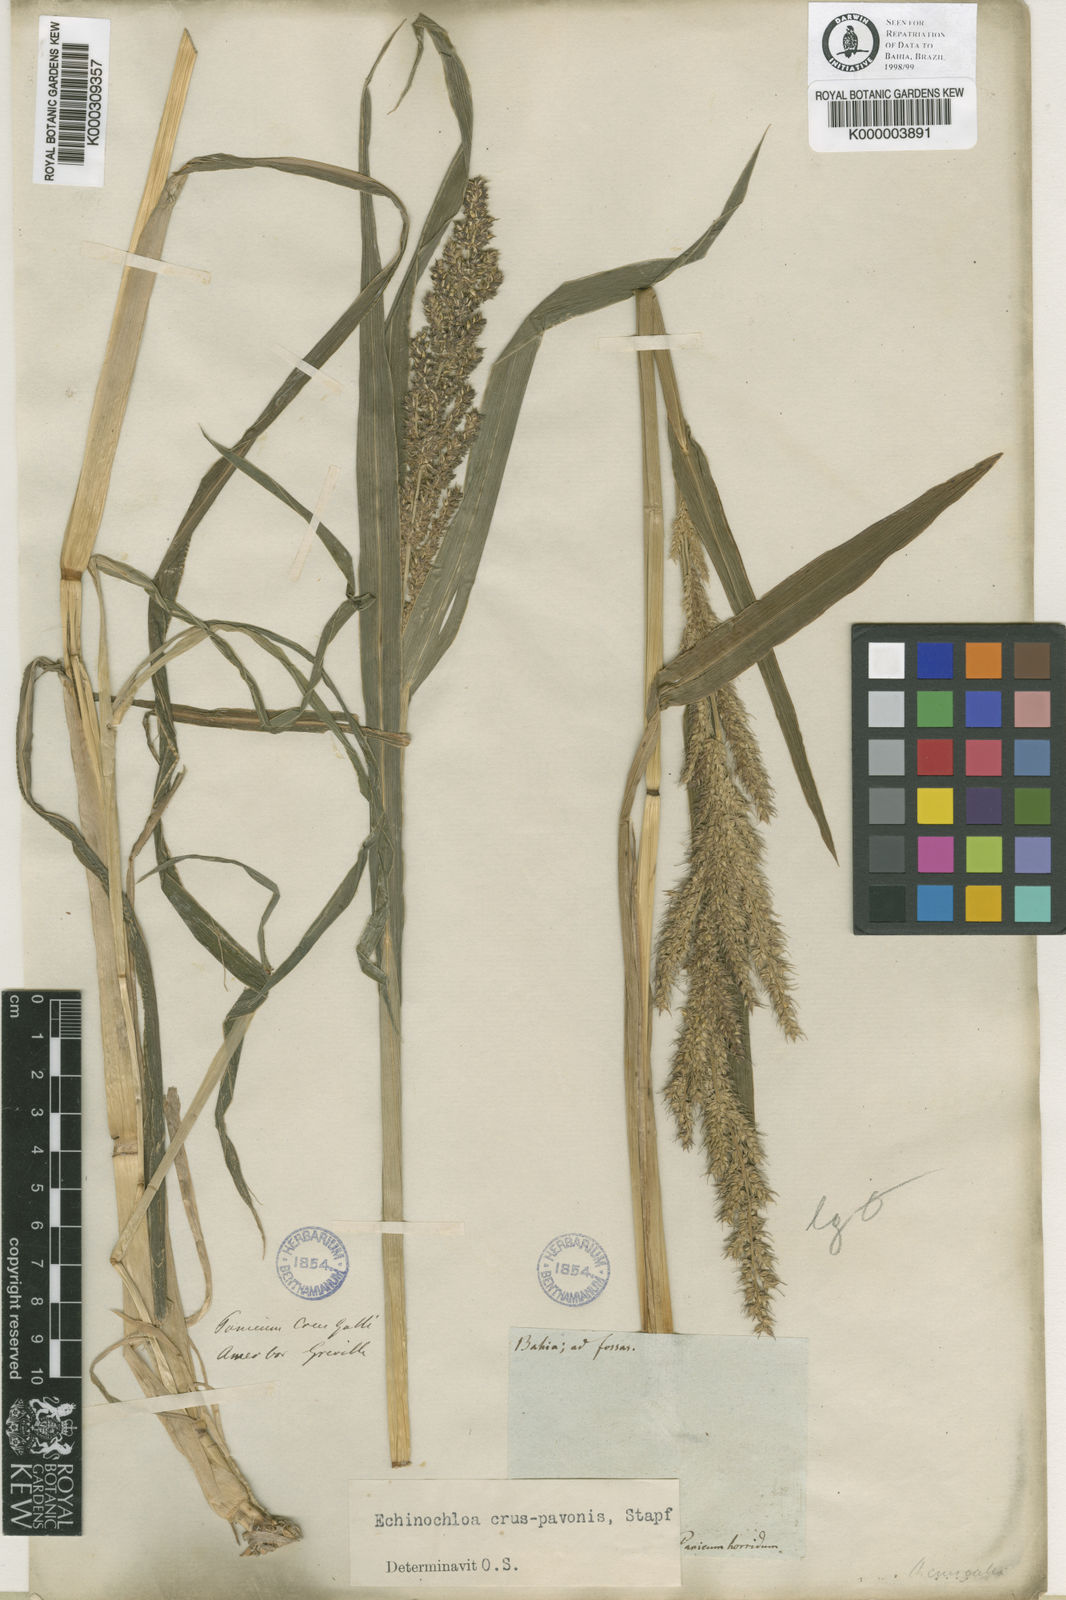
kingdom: Plantae
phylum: Tracheophyta
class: Liliopsida
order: Poales
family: Poaceae
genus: Echinochloa
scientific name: Echinochloa crus-pavonis
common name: Gulf cockspur grass
